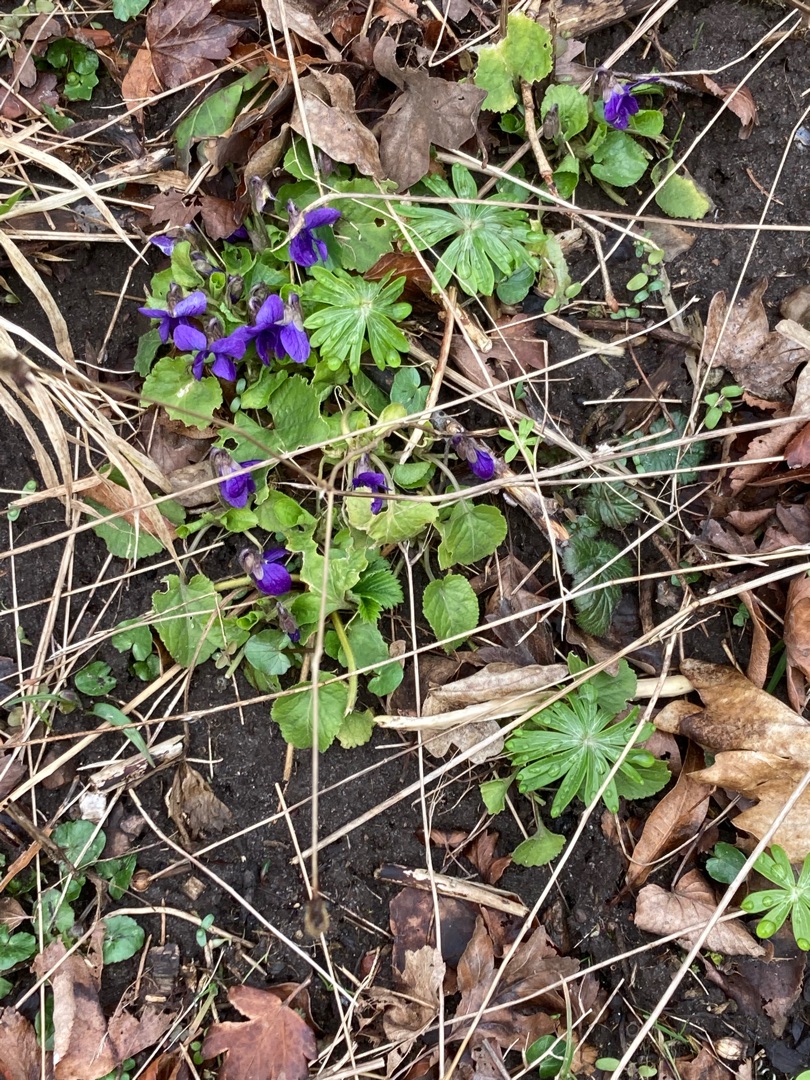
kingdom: Plantae
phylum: Tracheophyta
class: Magnoliopsida
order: Malpighiales
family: Violaceae
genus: Viola
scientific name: Viola odorata
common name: Marts-viol
